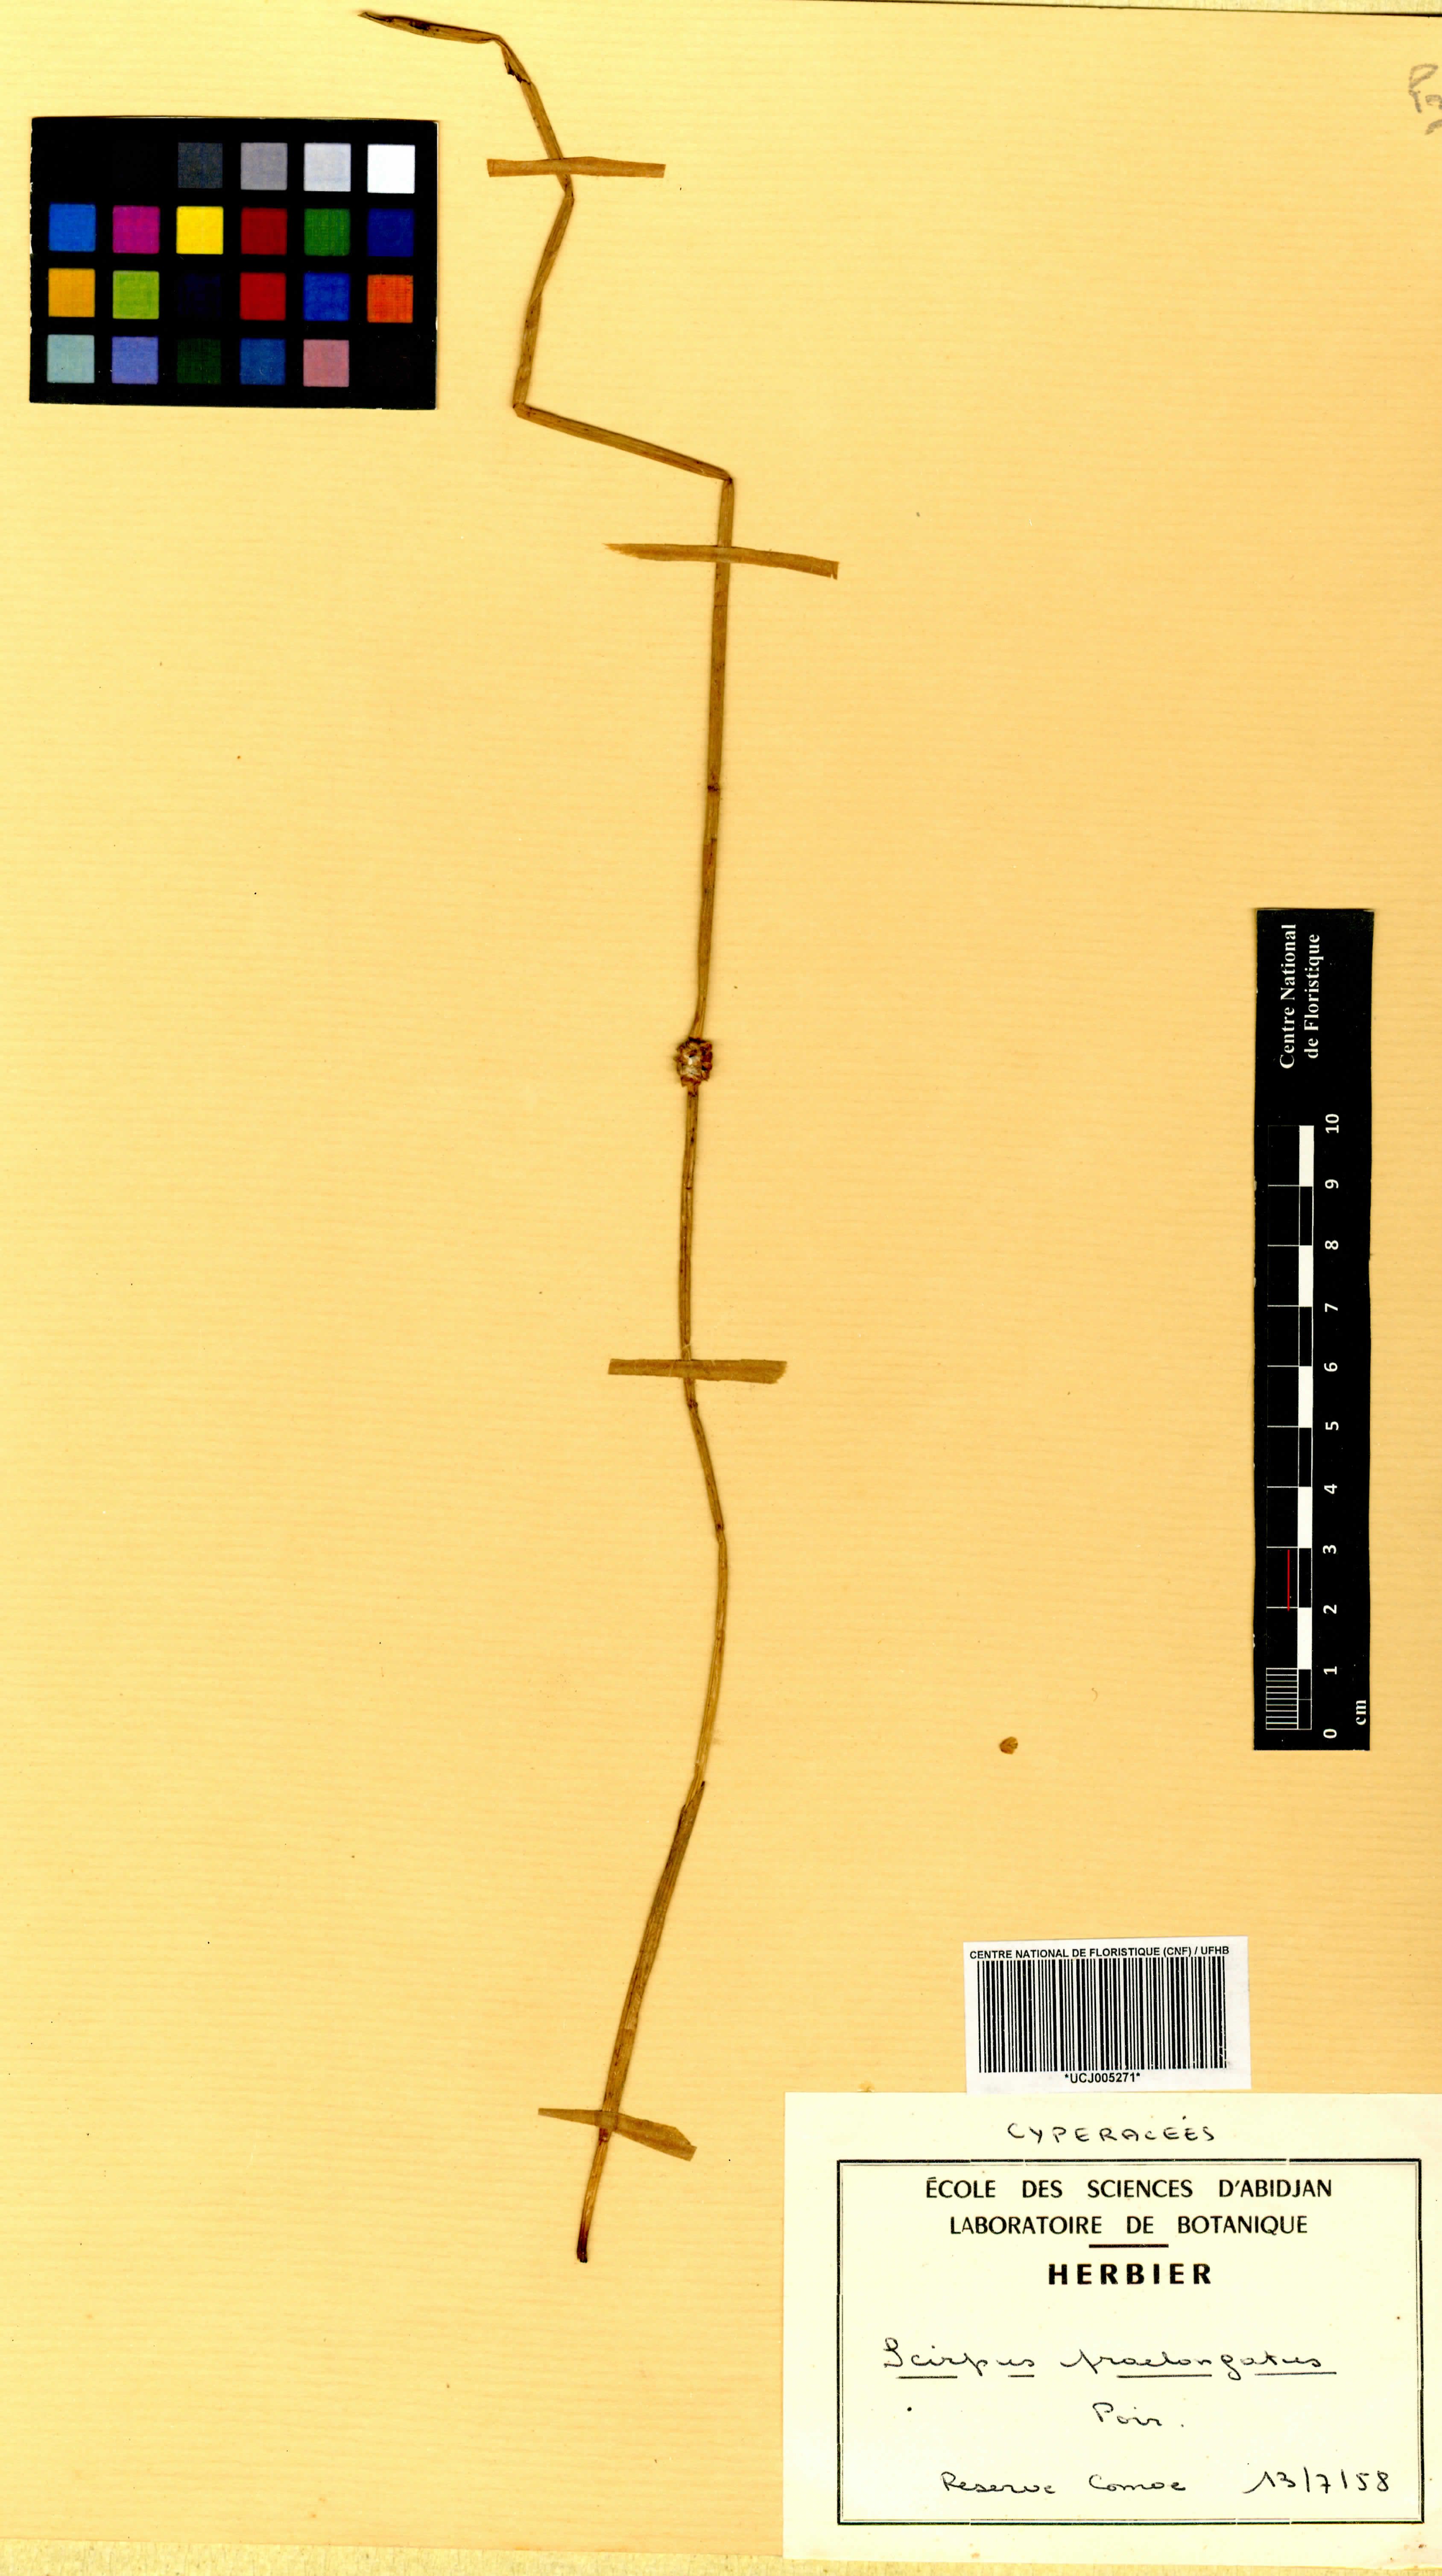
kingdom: Plantae
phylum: Tracheophyta
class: Liliopsida
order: Poales
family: Cyperaceae
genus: Schoenoplectiella
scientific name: Schoenoplectiella praelongata
